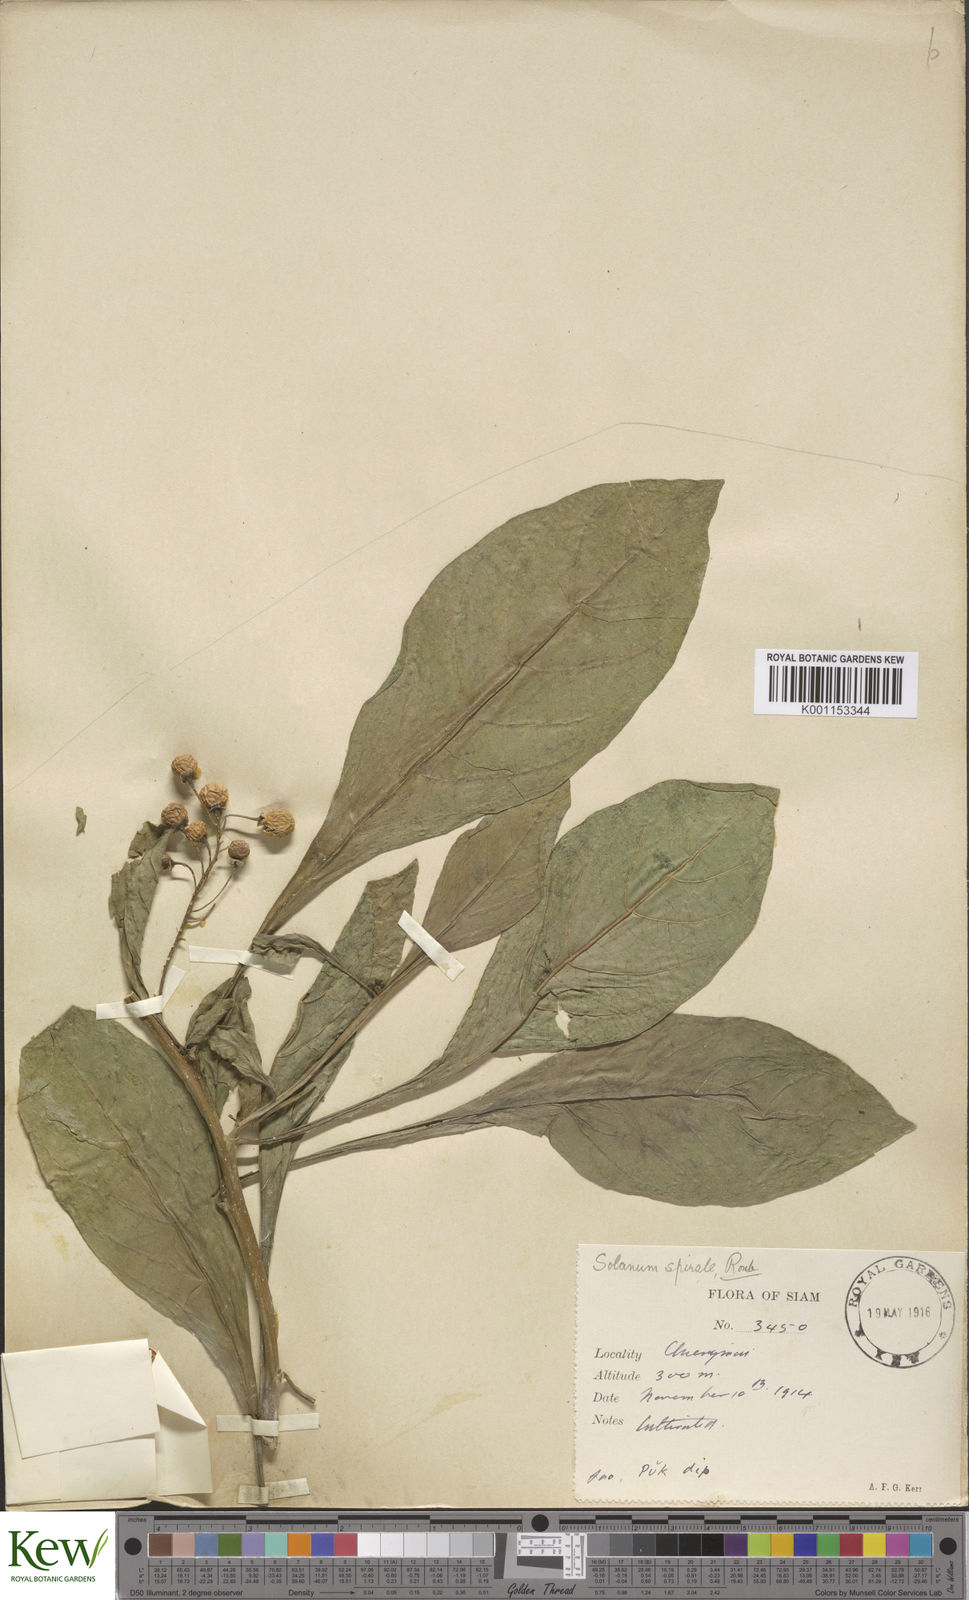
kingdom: Plantae
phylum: Tracheophyta
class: Magnoliopsida
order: Solanales
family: Solanaceae
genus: Solanum
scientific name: Solanum spirale
